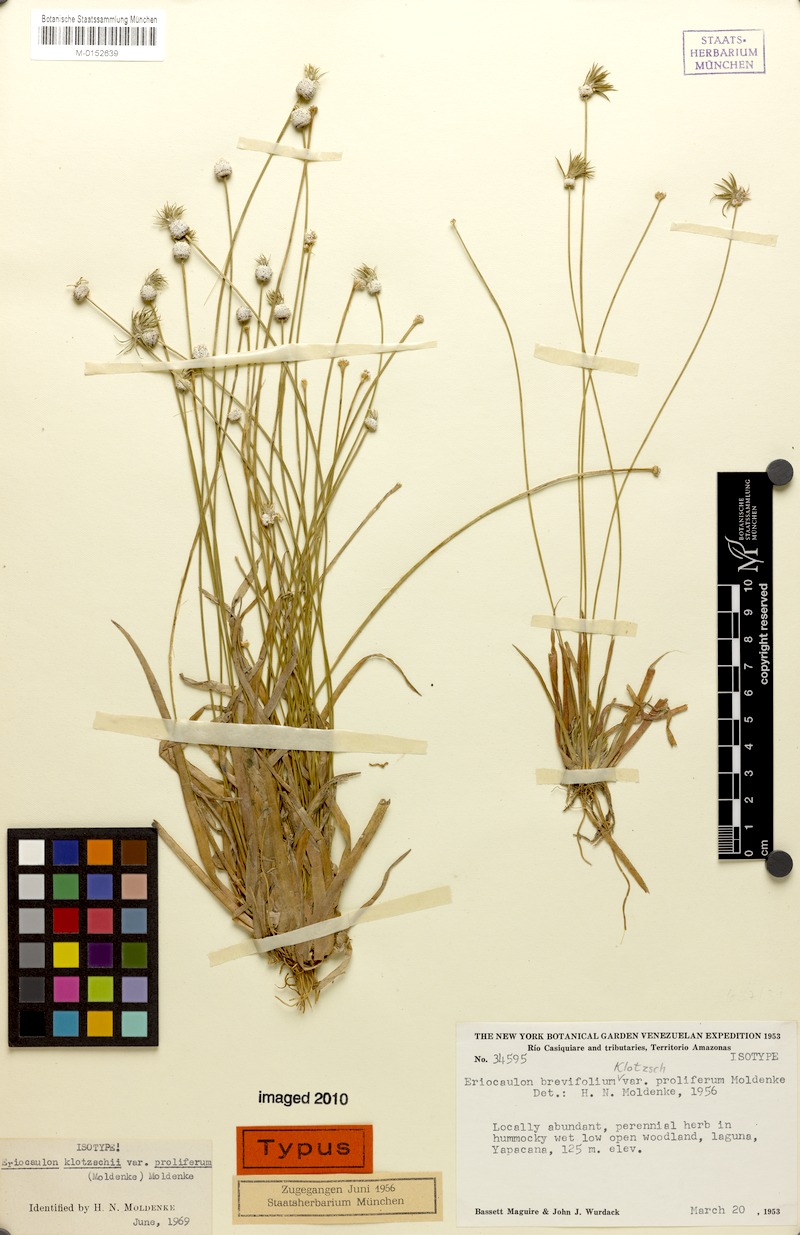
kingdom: Plantae
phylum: Tracheophyta
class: Liliopsida
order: Poales
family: Eriocaulaceae
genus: Eriocaulon
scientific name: Eriocaulon tenuifolium
